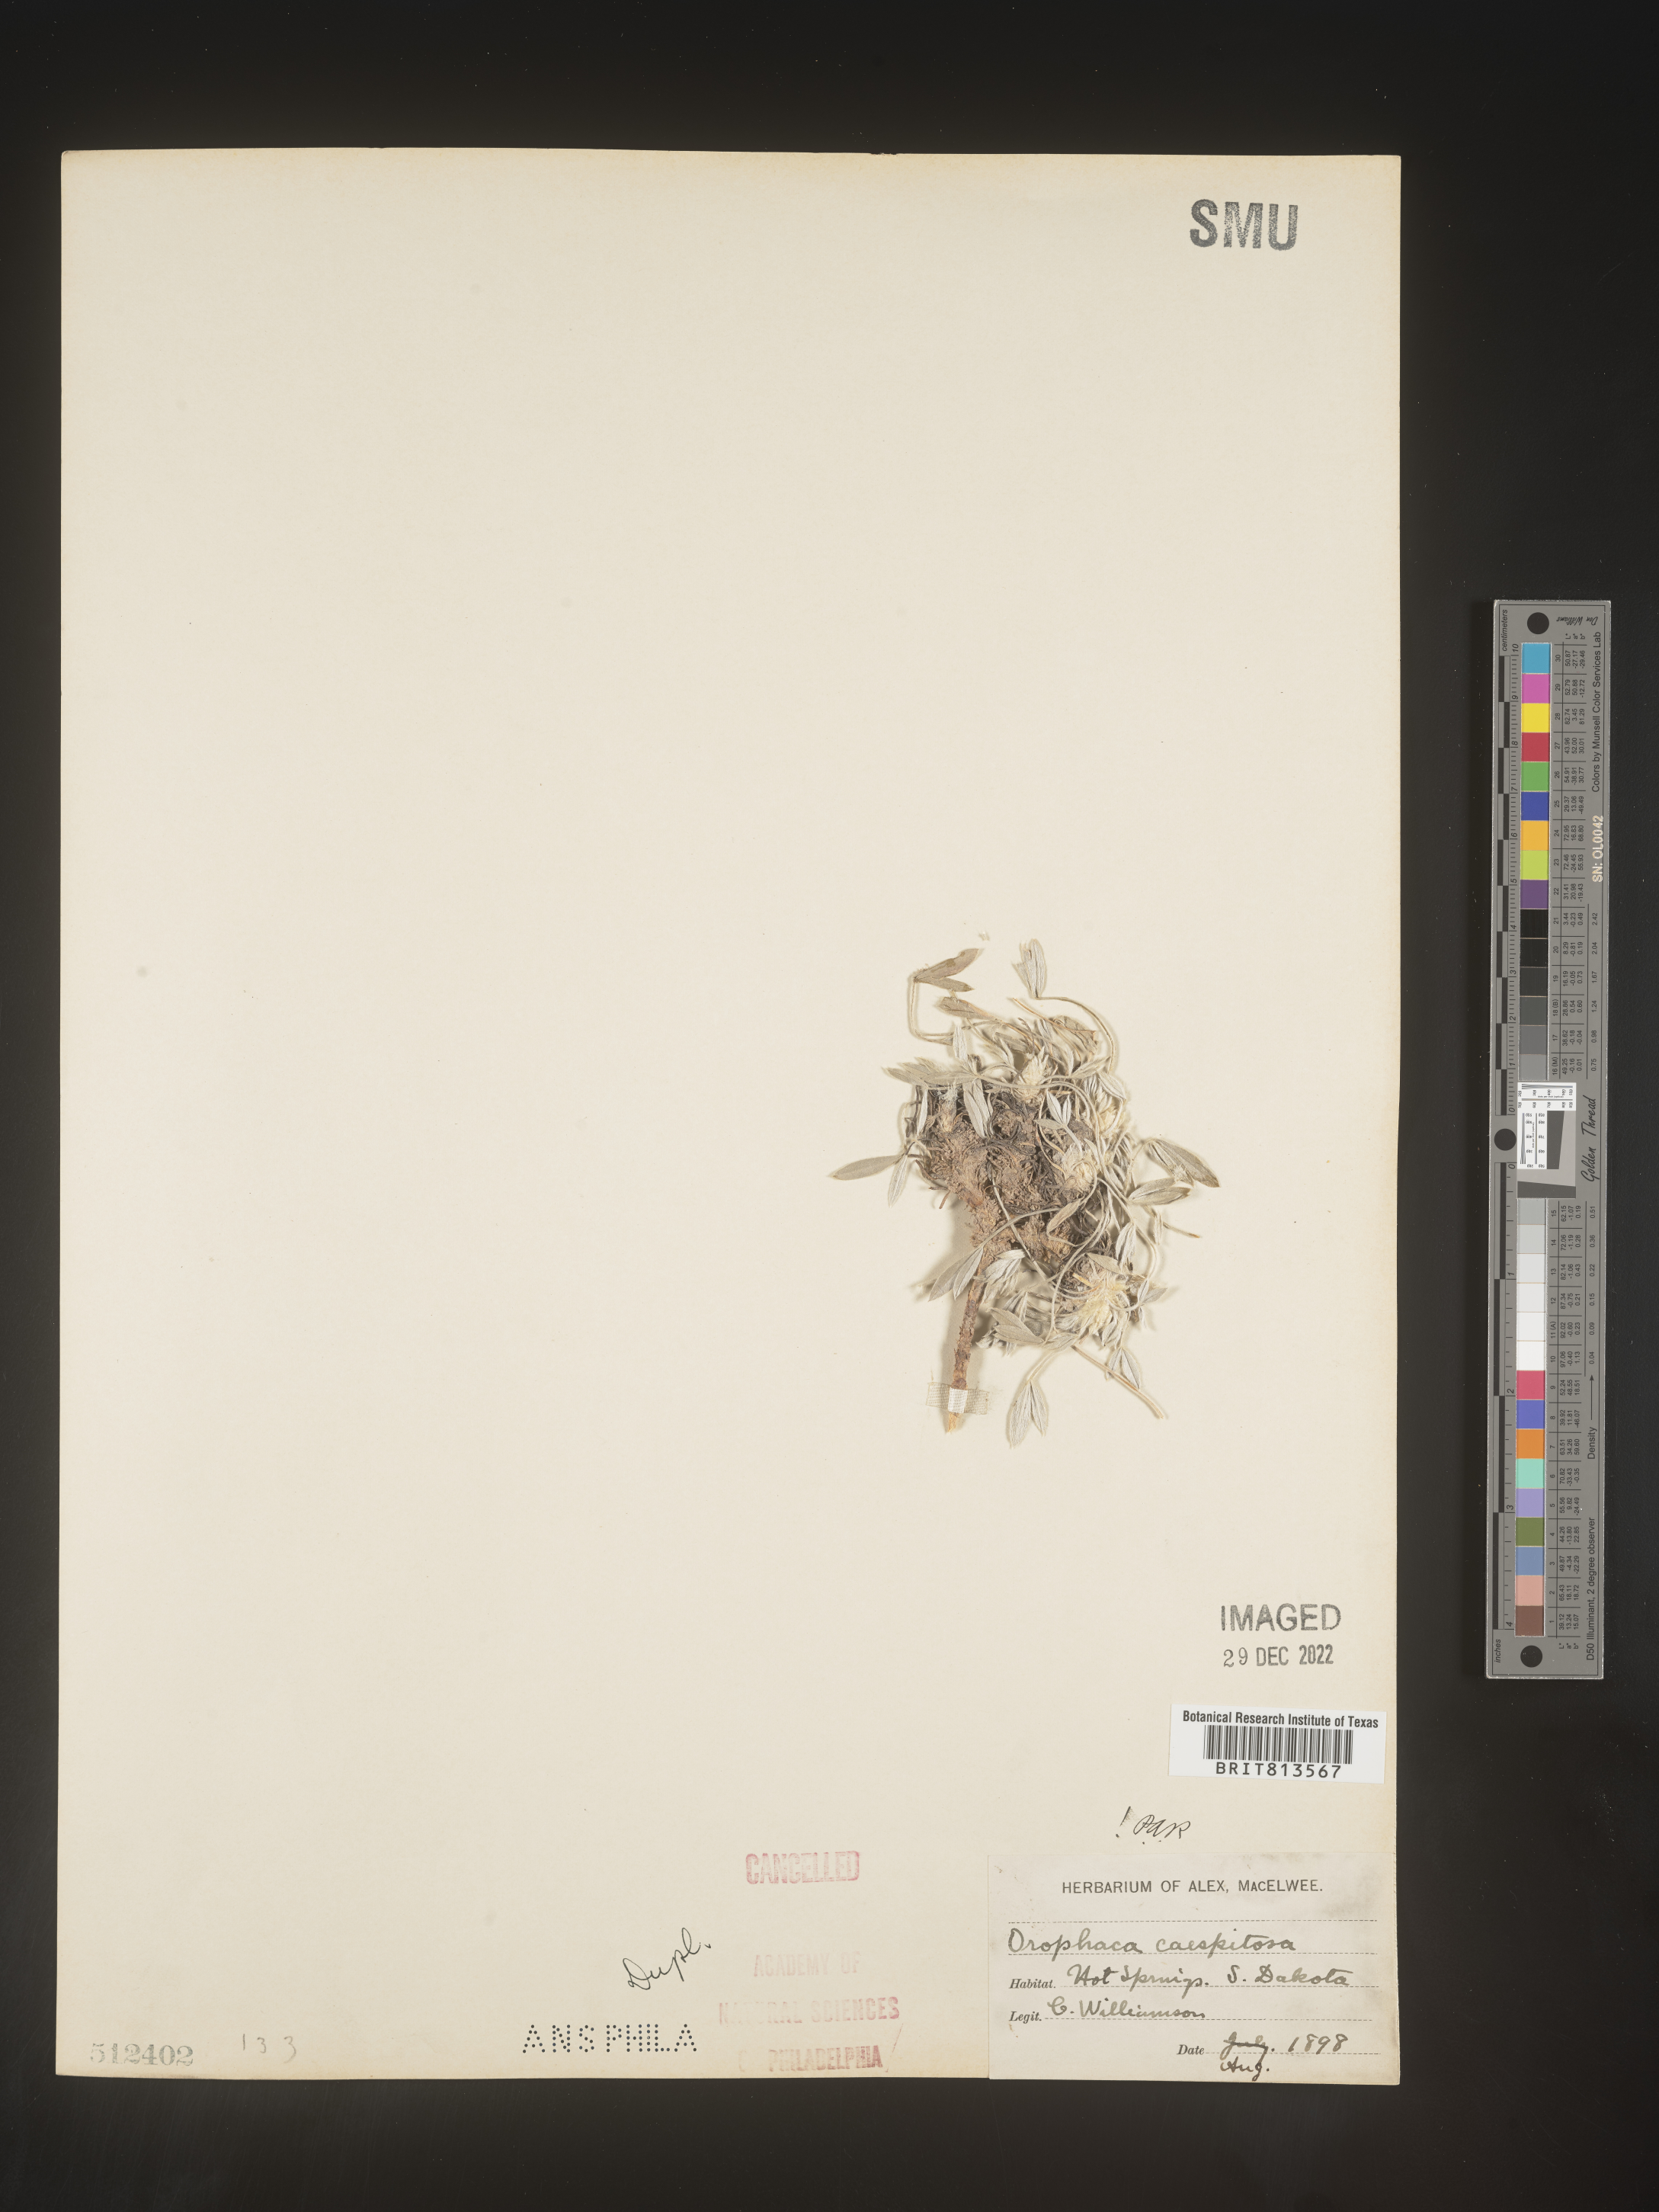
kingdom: Plantae
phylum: Tracheophyta
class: Magnoliopsida
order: Fabales
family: Fabaceae
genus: Astragalus
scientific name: Astragalus
